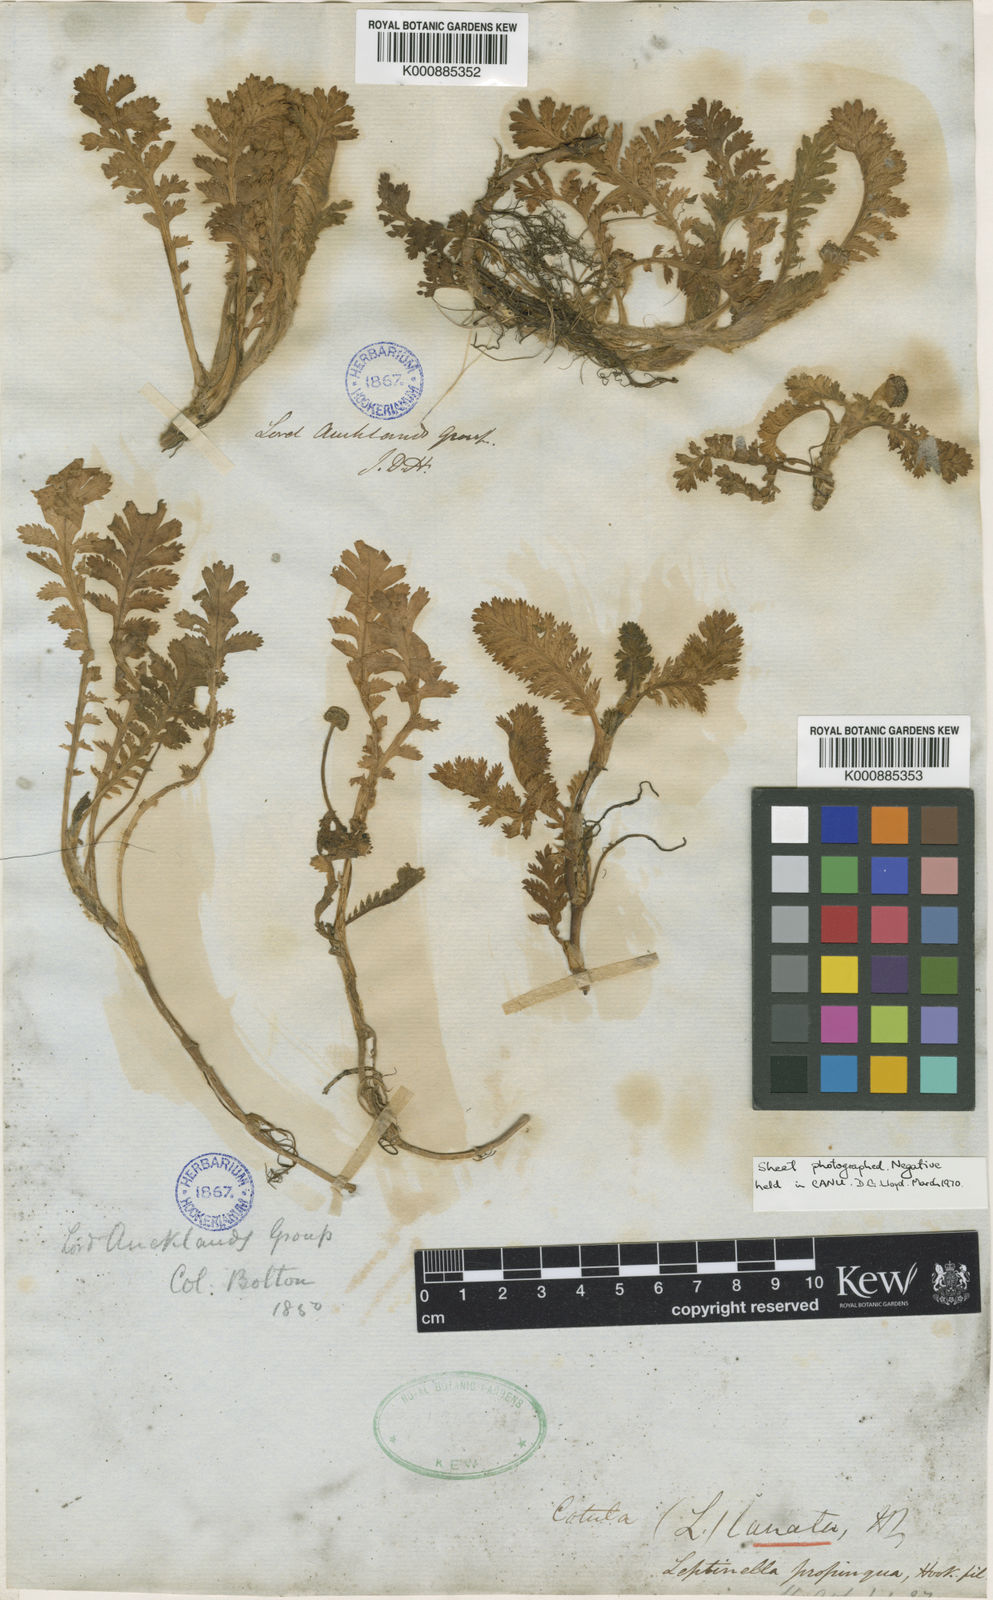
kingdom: Plantae
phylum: Tracheophyta
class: Magnoliopsida
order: Asterales
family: Asteraceae
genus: Leptinella
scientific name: Leptinella lanata
